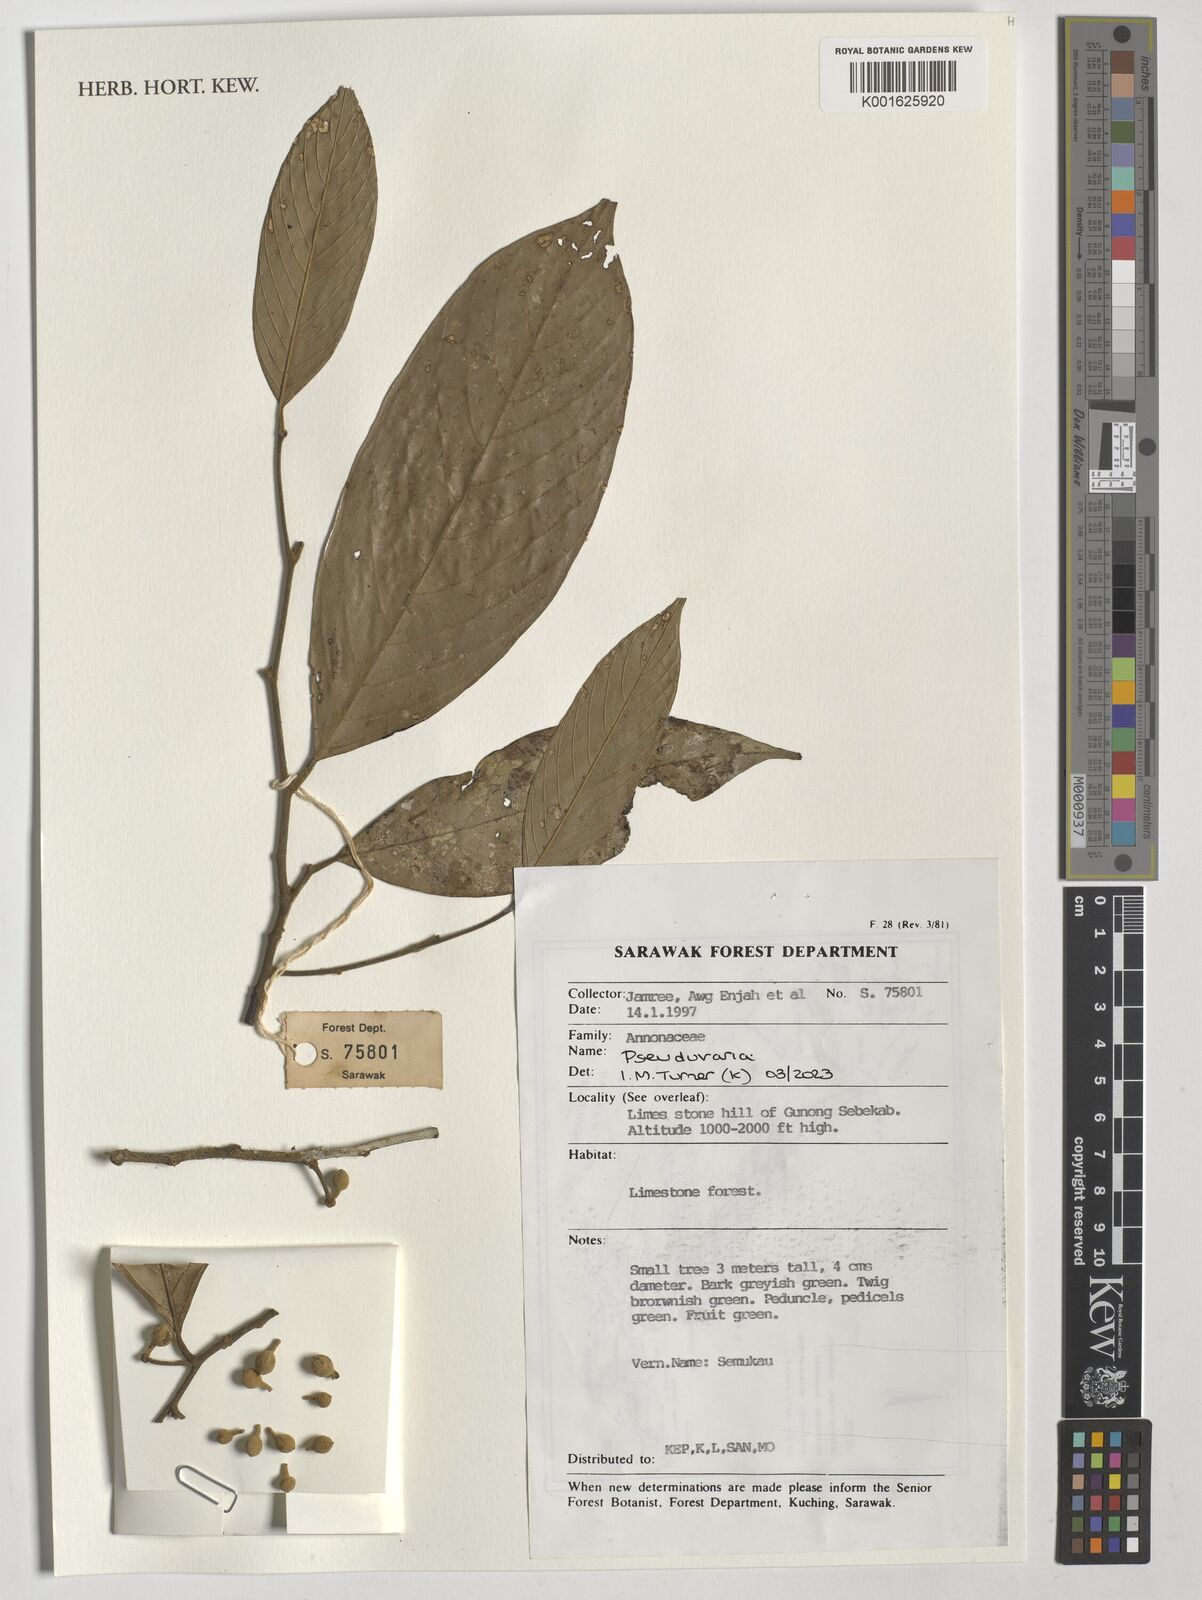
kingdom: Plantae
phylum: Tracheophyta
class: Magnoliopsida
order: Magnoliales
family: Annonaceae
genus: Pseuduvaria
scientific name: Pseuduvaria
